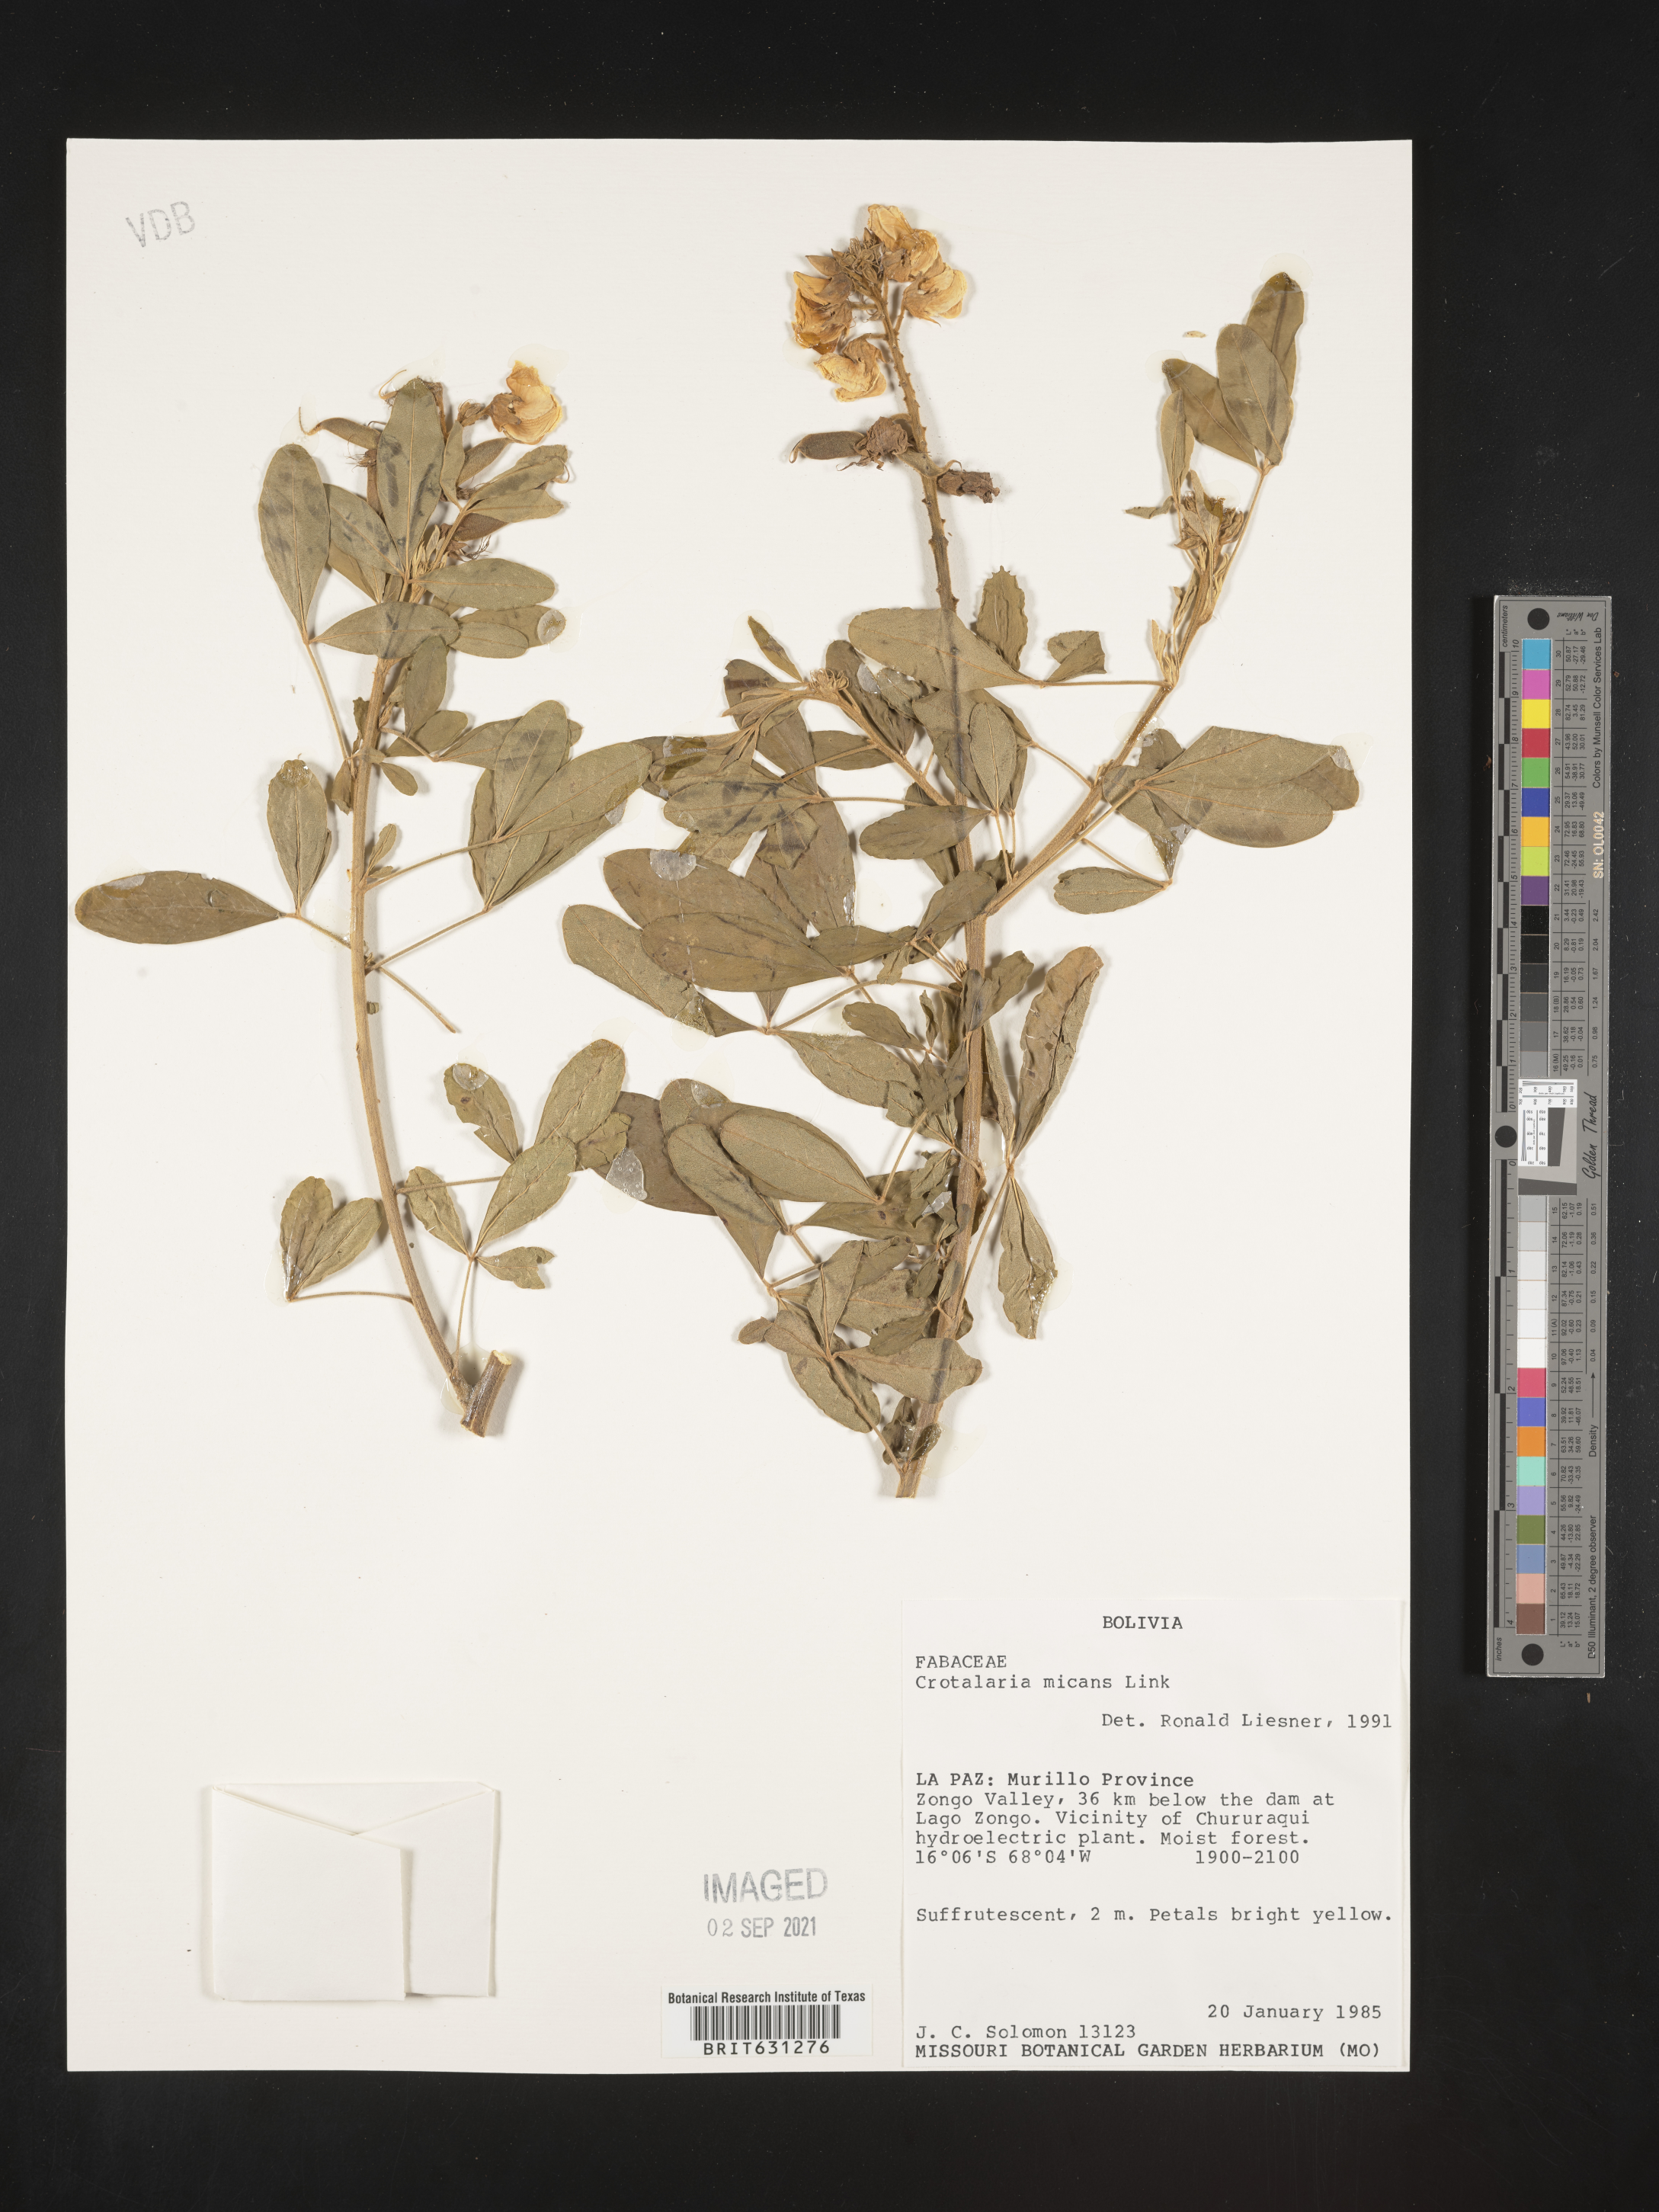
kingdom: Plantae
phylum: Tracheophyta
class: Magnoliopsida
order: Fabales
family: Fabaceae
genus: Crotalaria
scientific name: Crotalaria micans
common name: Caracas rattlebox
